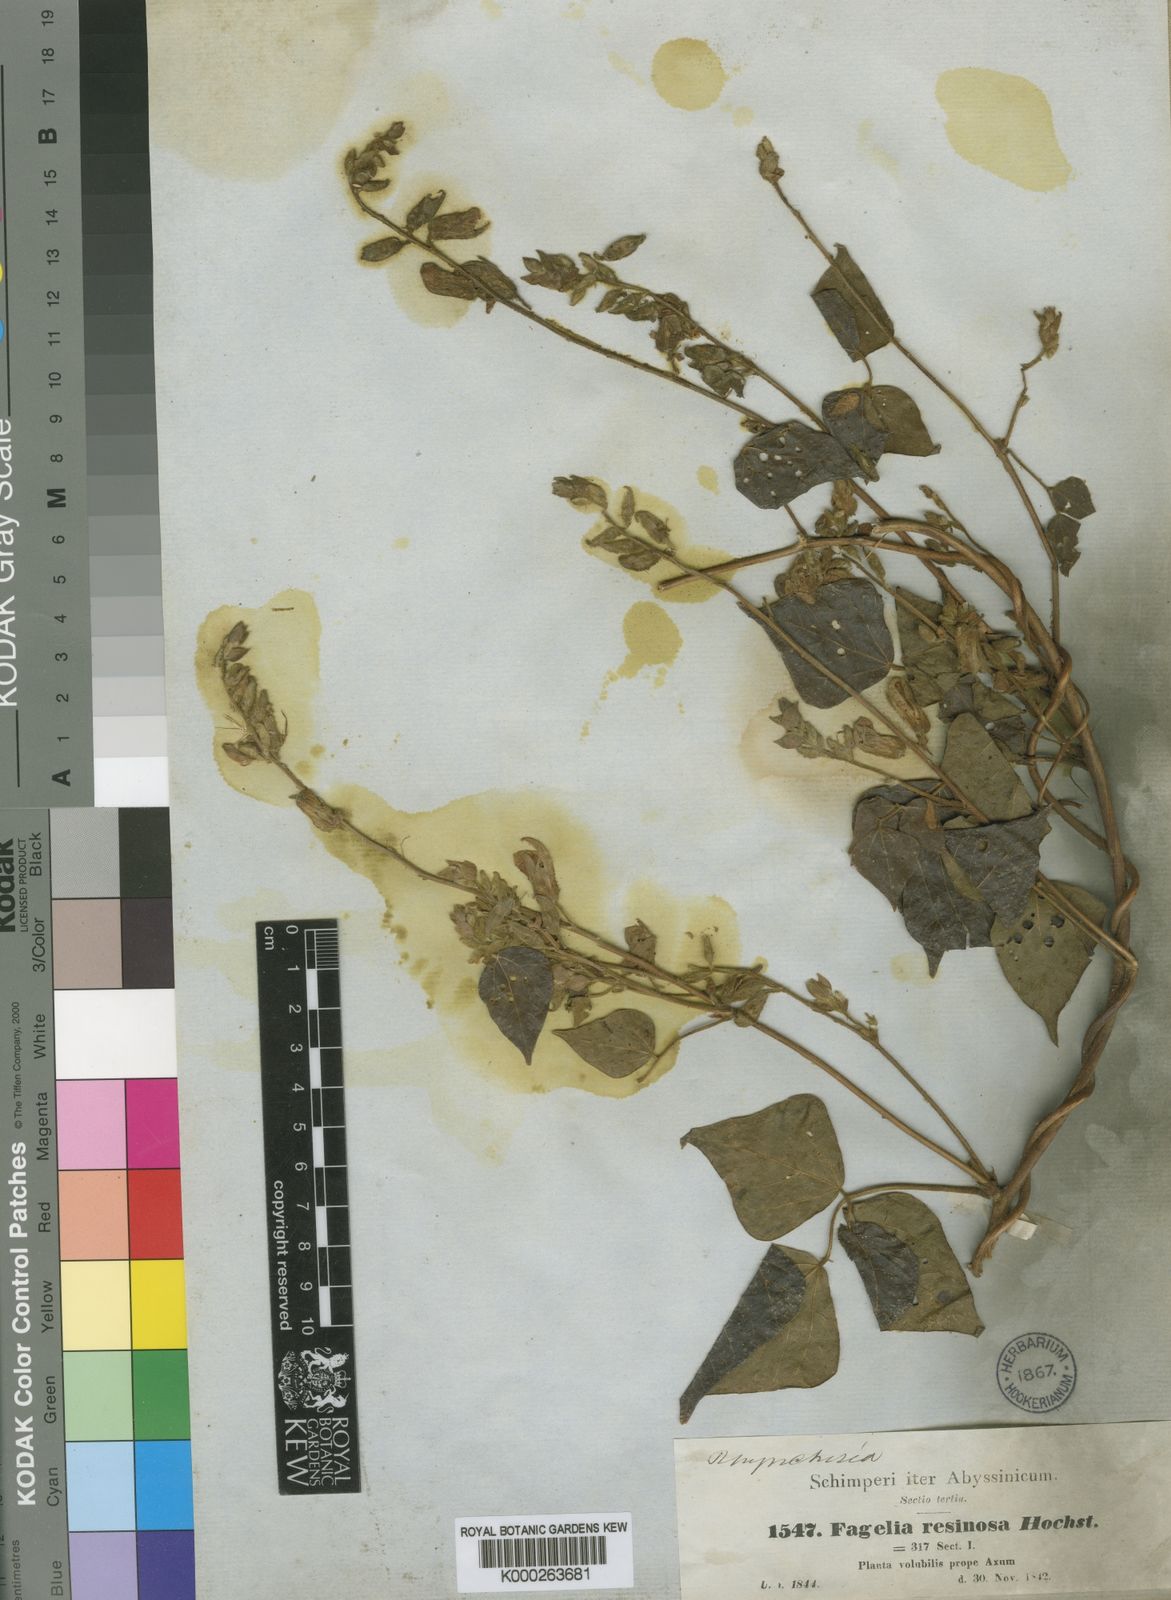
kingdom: Plantae
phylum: Tracheophyta
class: Magnoliopsida
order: Fabales
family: Fabaceae
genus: Rhynchosia
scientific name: Rhynchosia resinosa
